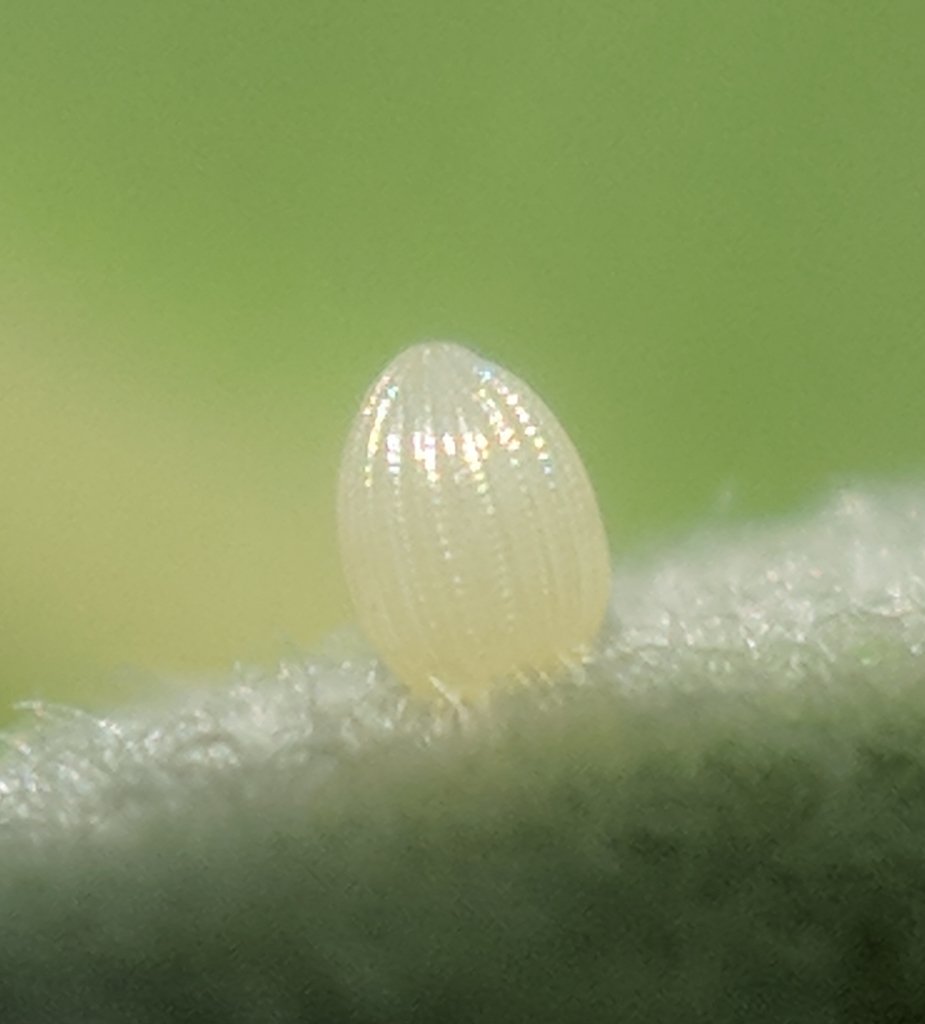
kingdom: Animalia
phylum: Arthropoda
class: Insecta
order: Lepidoptera
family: Nymphalidae
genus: Danaus
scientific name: Danaus plexippus
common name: Monarch
